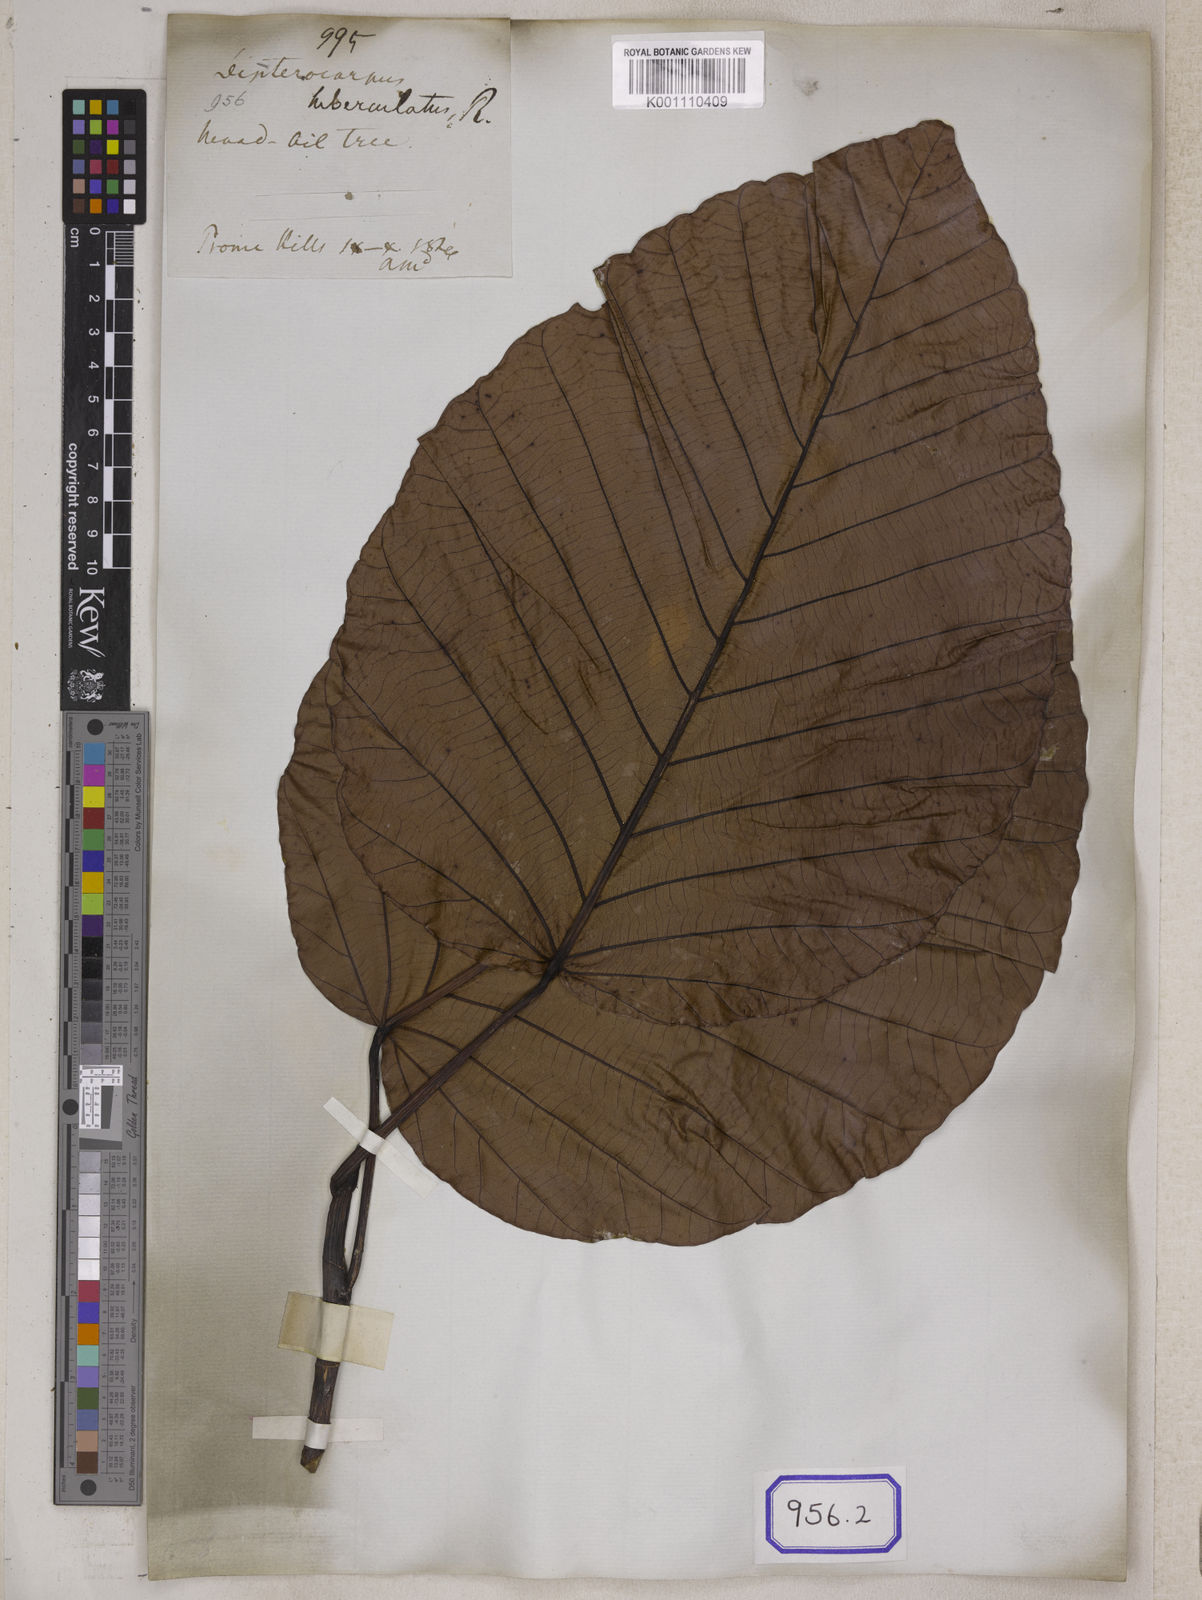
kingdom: Plantae
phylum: Tracheophyta
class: Magnoliopsida
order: Malvales
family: Dipterocarpaceae
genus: Dipterocarpus
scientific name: Dipterocarpus
